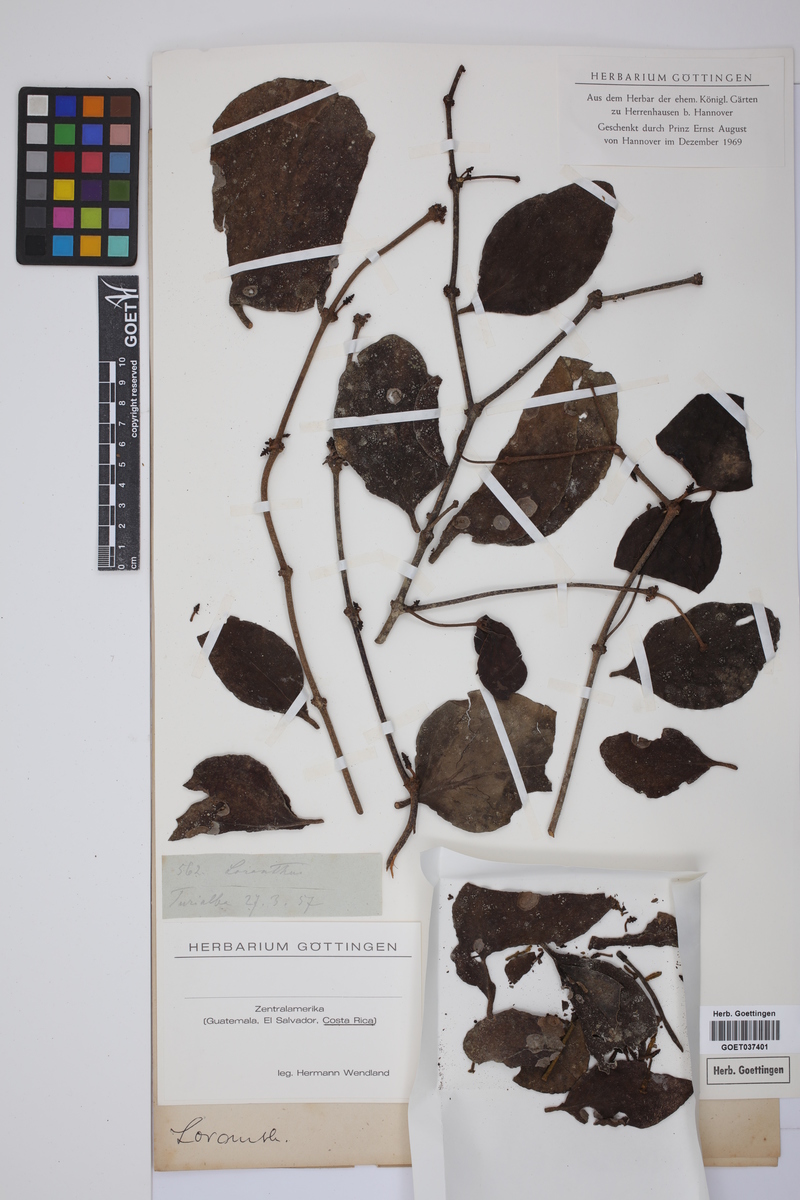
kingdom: Plantae
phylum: Tracheophyta
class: Magnoliopsida
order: Santalales
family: Loranthaceae
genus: Loranthus
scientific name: Loranthus
